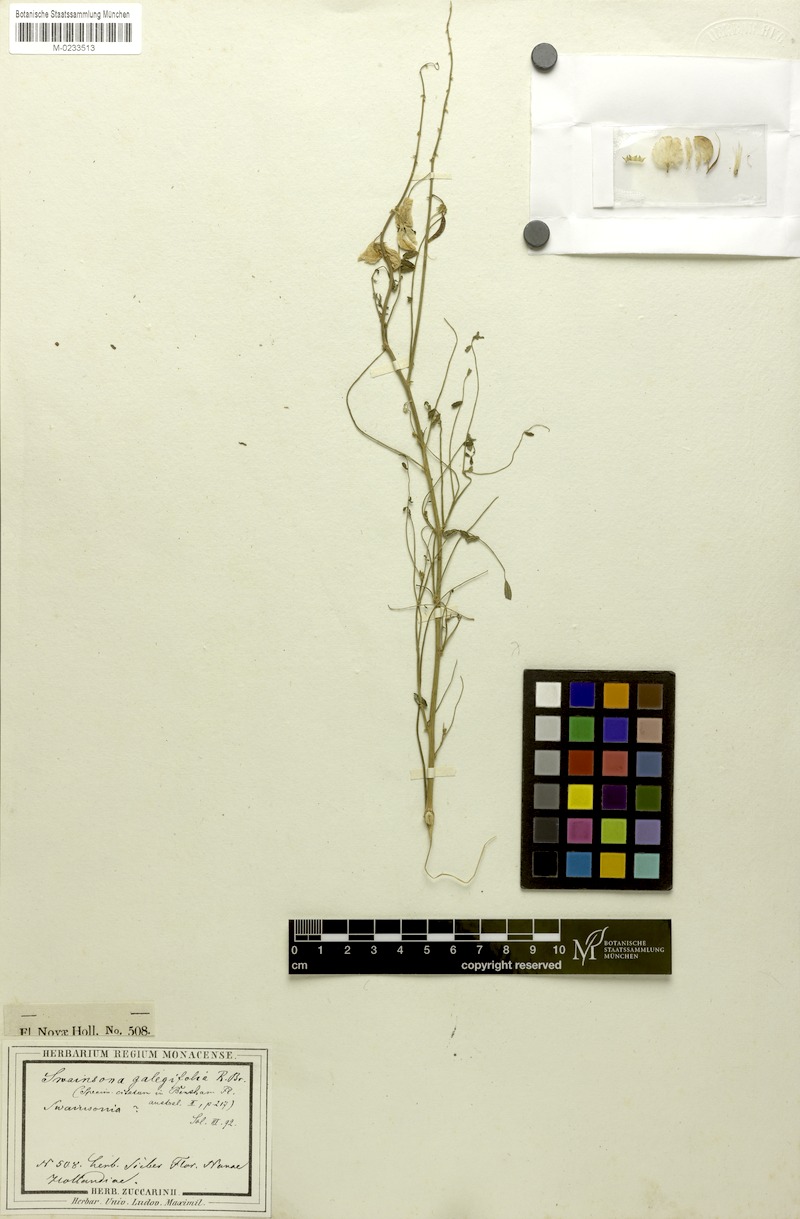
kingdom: Plantae
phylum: Tracheophyta
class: Magnoliopsida
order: Fabales
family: Fabaceae
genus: Swainsona
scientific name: Swainsona galegifolia
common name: Swanflower
